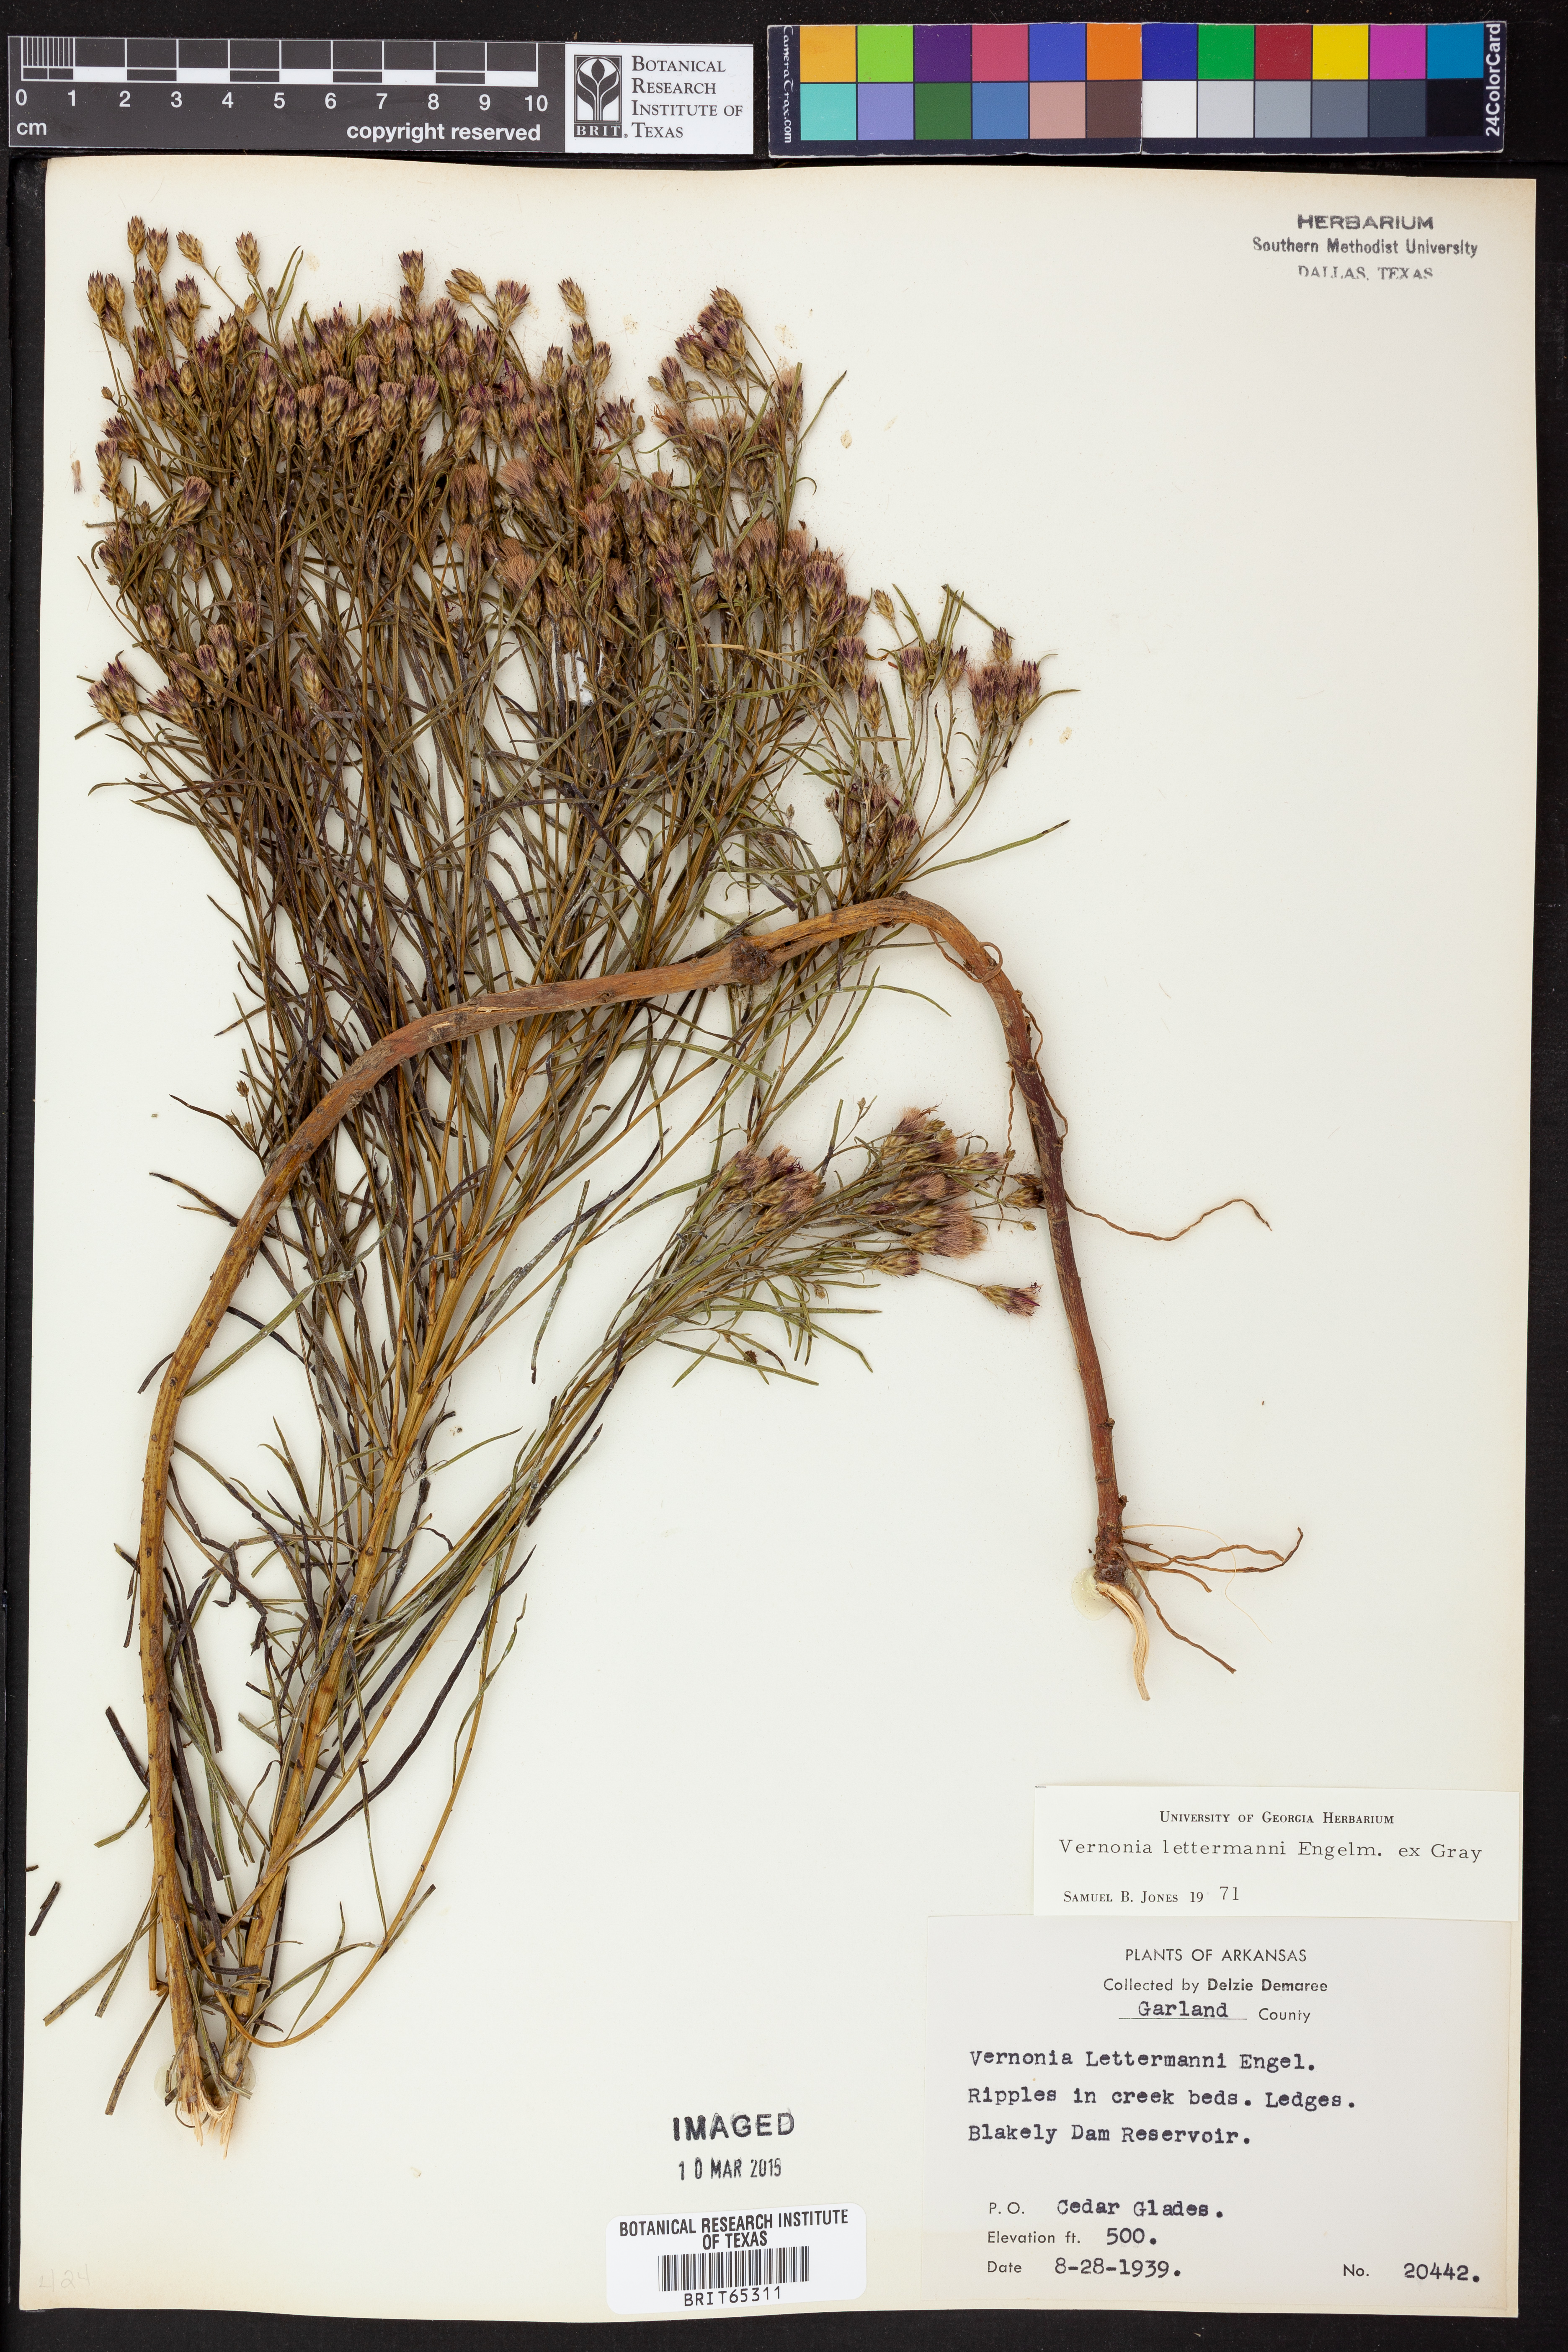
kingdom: Plantae
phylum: Tracheophyta
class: Magnoliopsida
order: Asterales
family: Asteraceae
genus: Vernonia
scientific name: Vernonia lettermannii
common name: Lettermann's ironweed
